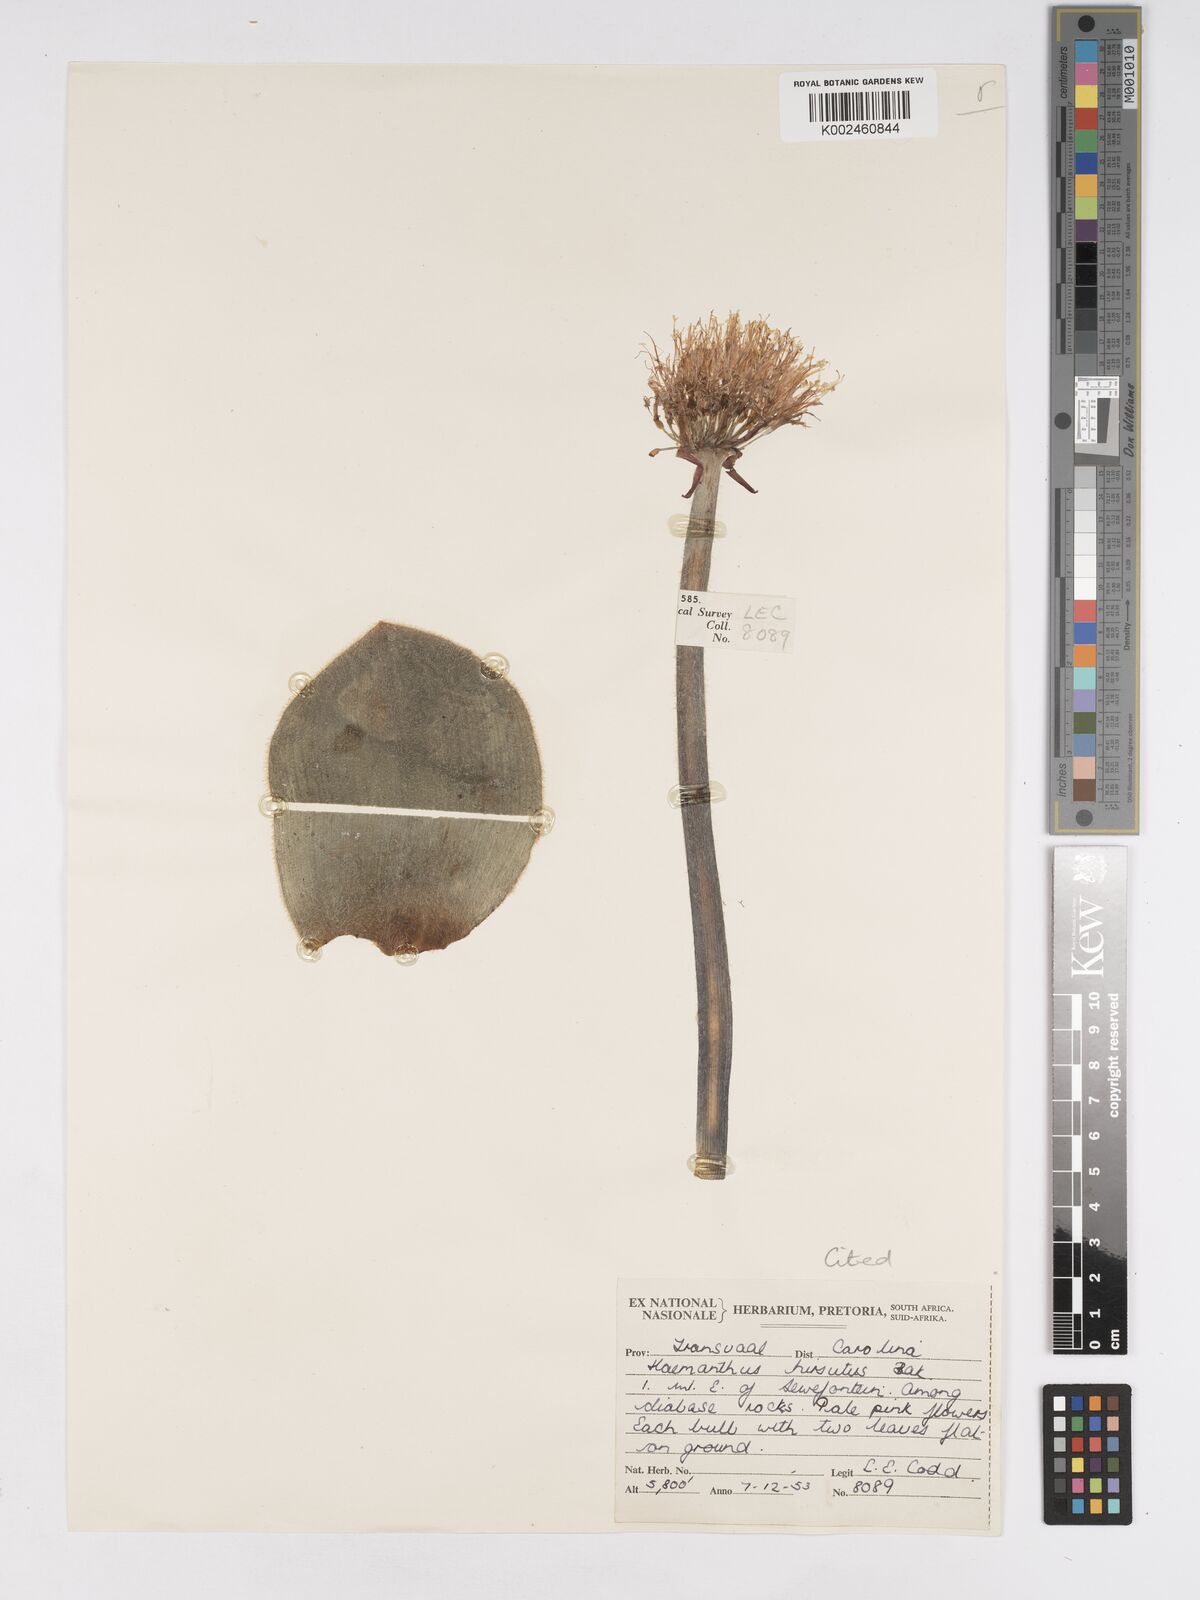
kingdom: Plantae
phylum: Tracheophyta
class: Liliopsida
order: Asparagales
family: Amaryllidaceae
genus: Haemanthus
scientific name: Haemanthus humilis
